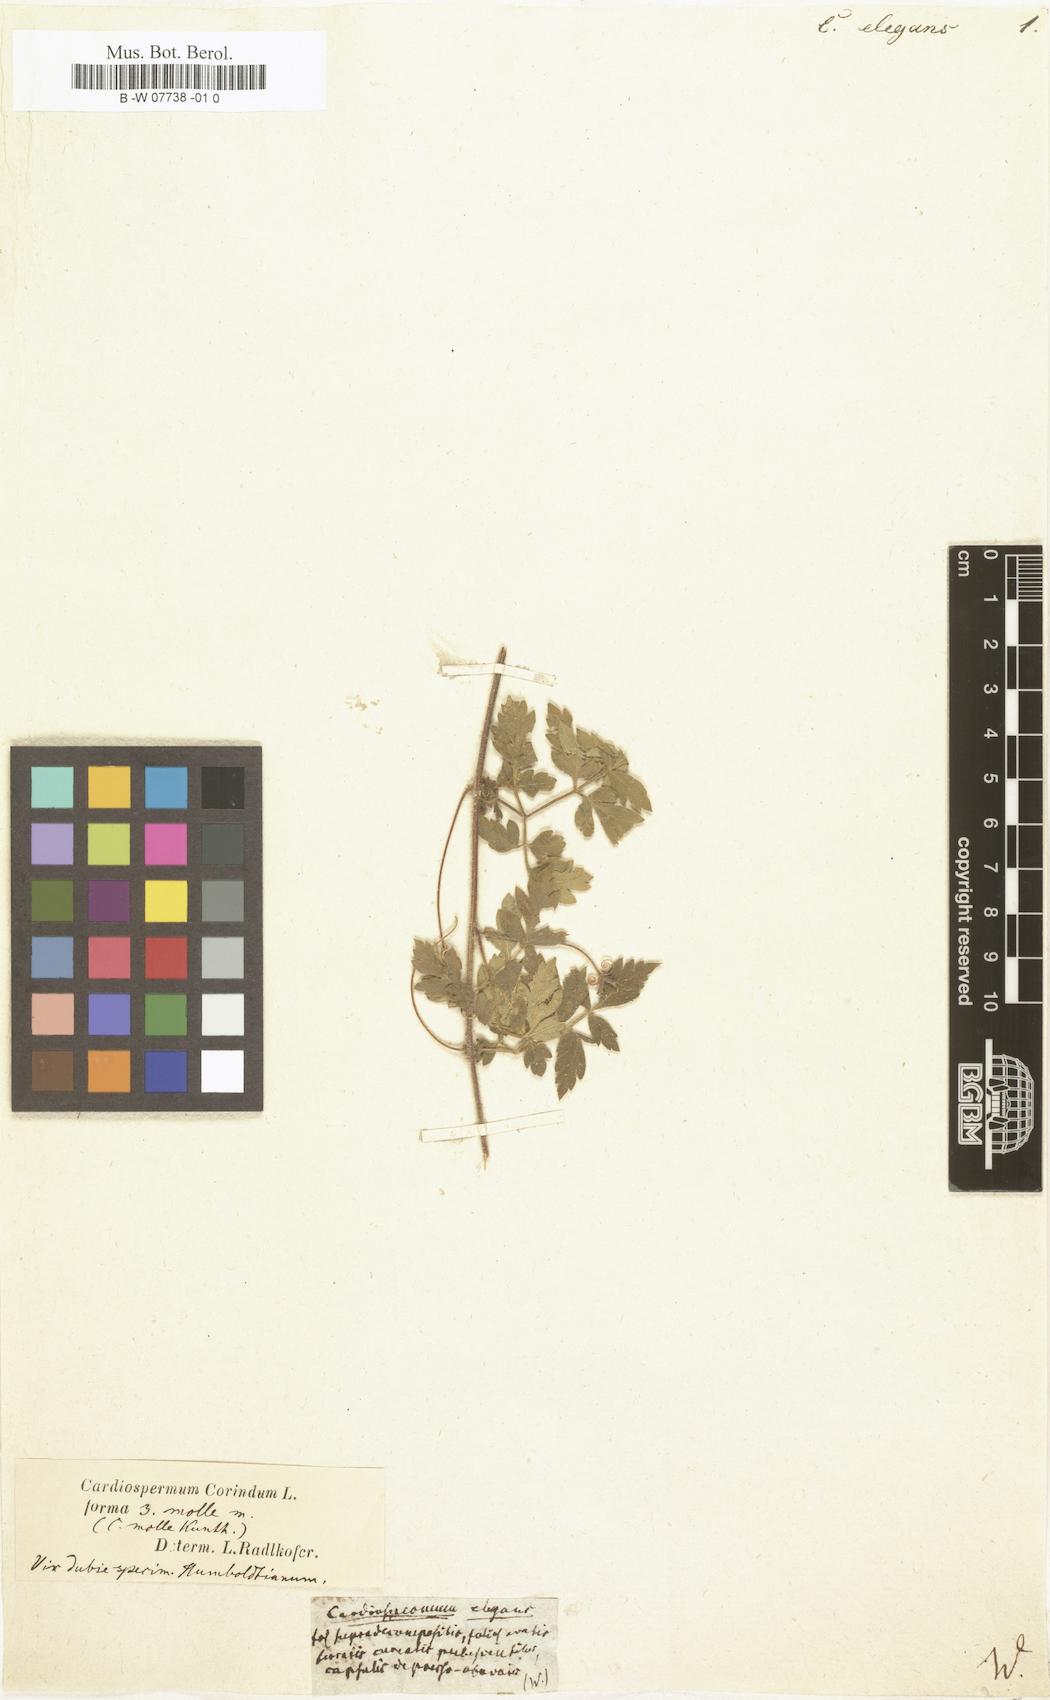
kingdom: Plantae
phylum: Tracheophyta
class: Magnoliopsida
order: Sapindales
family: Sapindaceae
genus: Cardiospermum
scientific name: Cardiospermum grandiflorum
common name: Balloon vine
